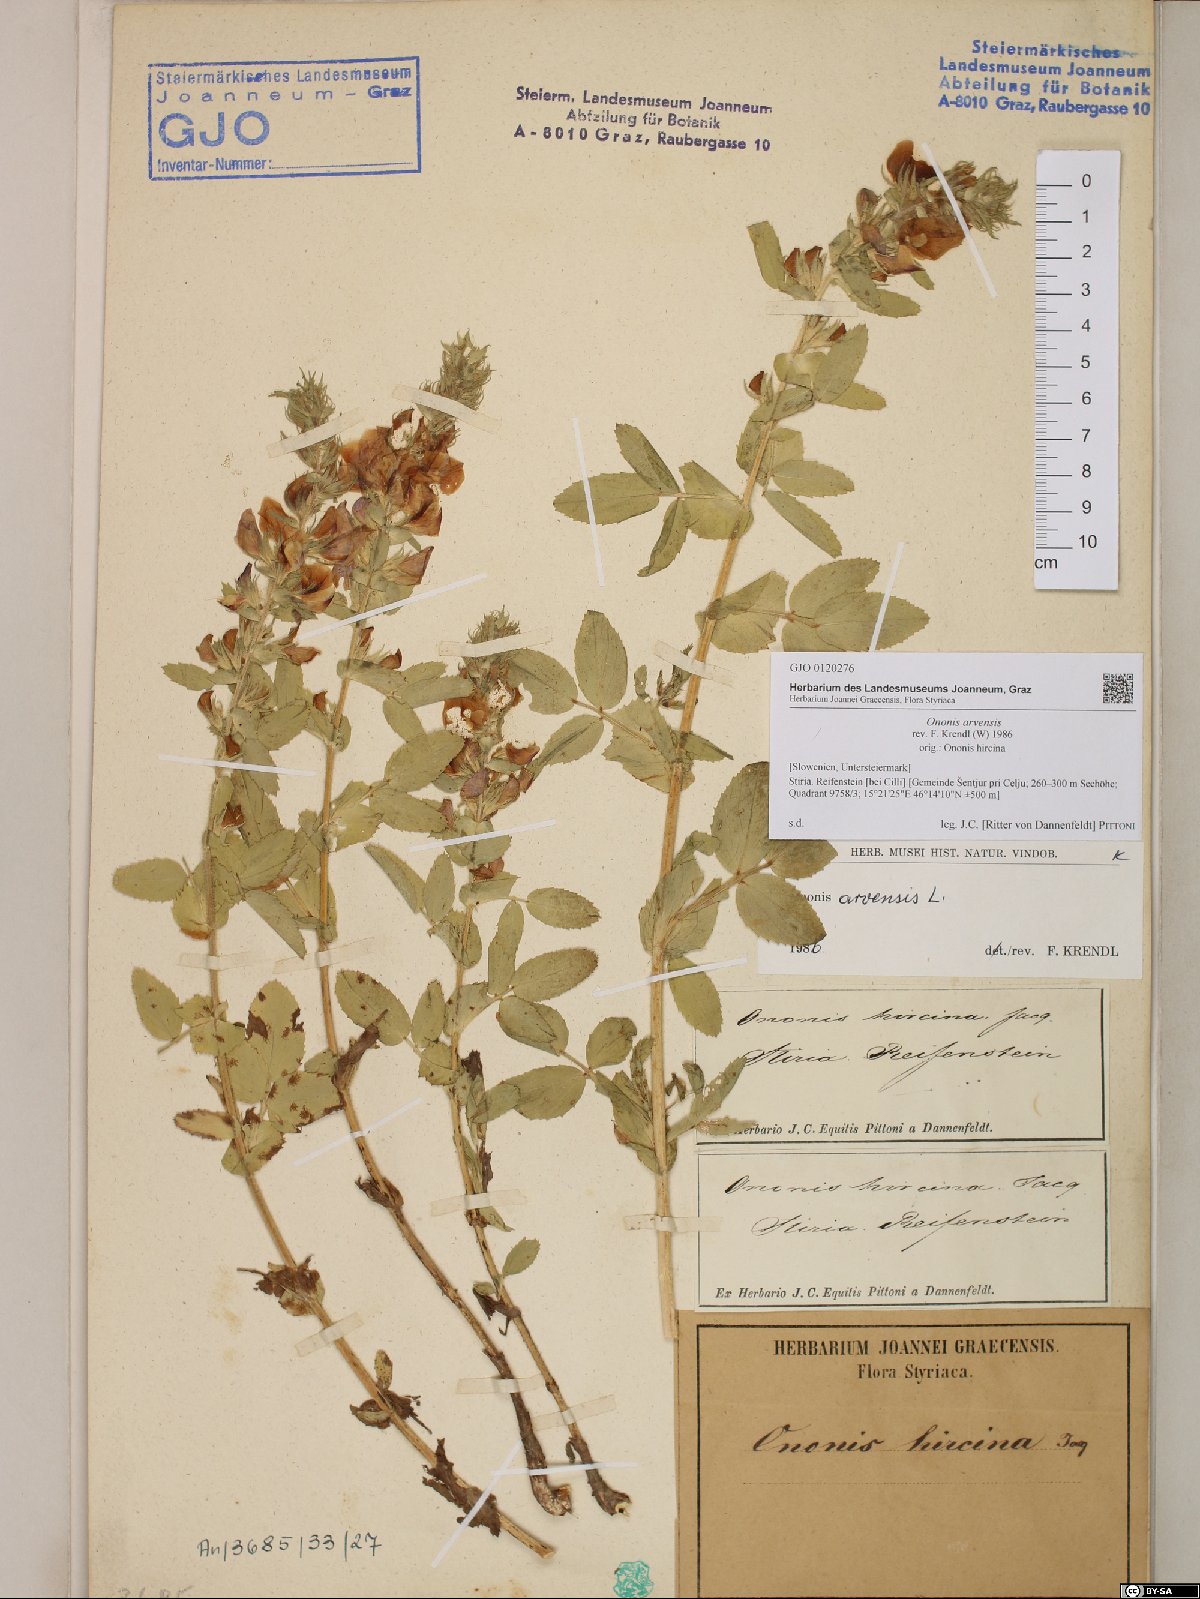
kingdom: Plantae
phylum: Tracheophyta
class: Magnoliopsida
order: Fabales
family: Fabaceae
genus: Ononis
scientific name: Ononis arvensis
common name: Field restharrow
